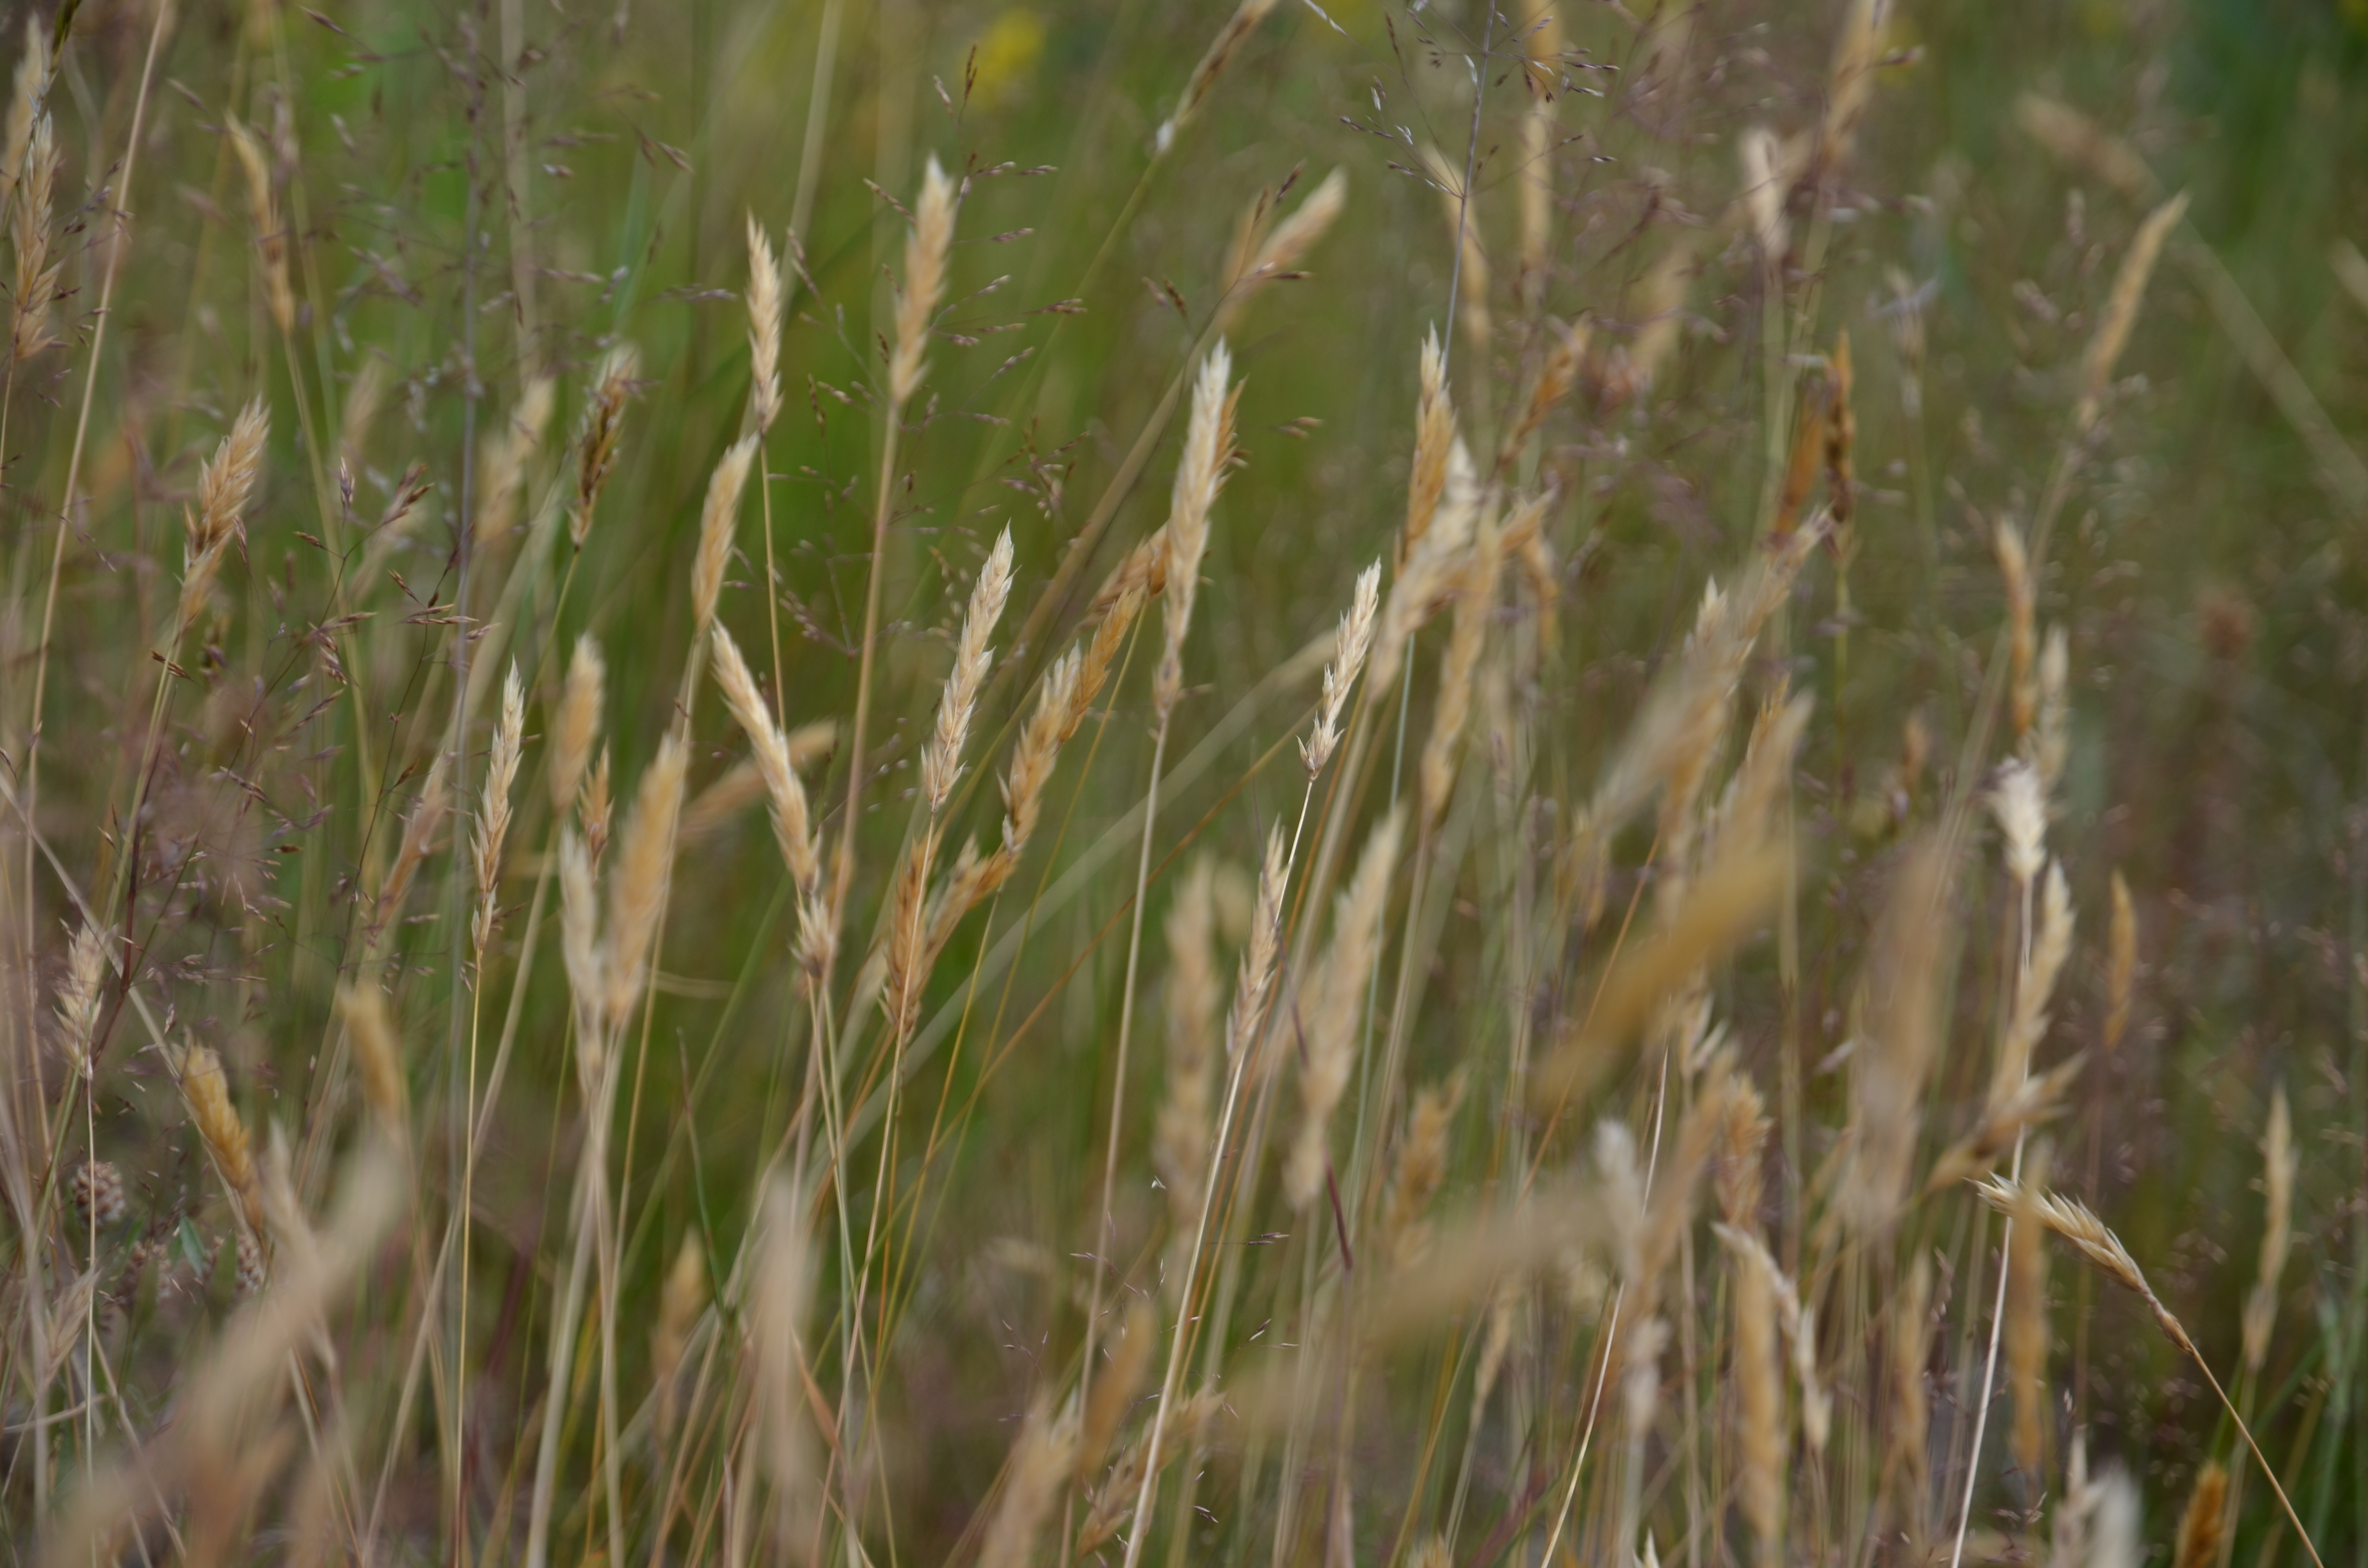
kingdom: Plantae
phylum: Tracheophyta
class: Liliopsida
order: Poales
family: Poaceae
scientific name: Poaceae
